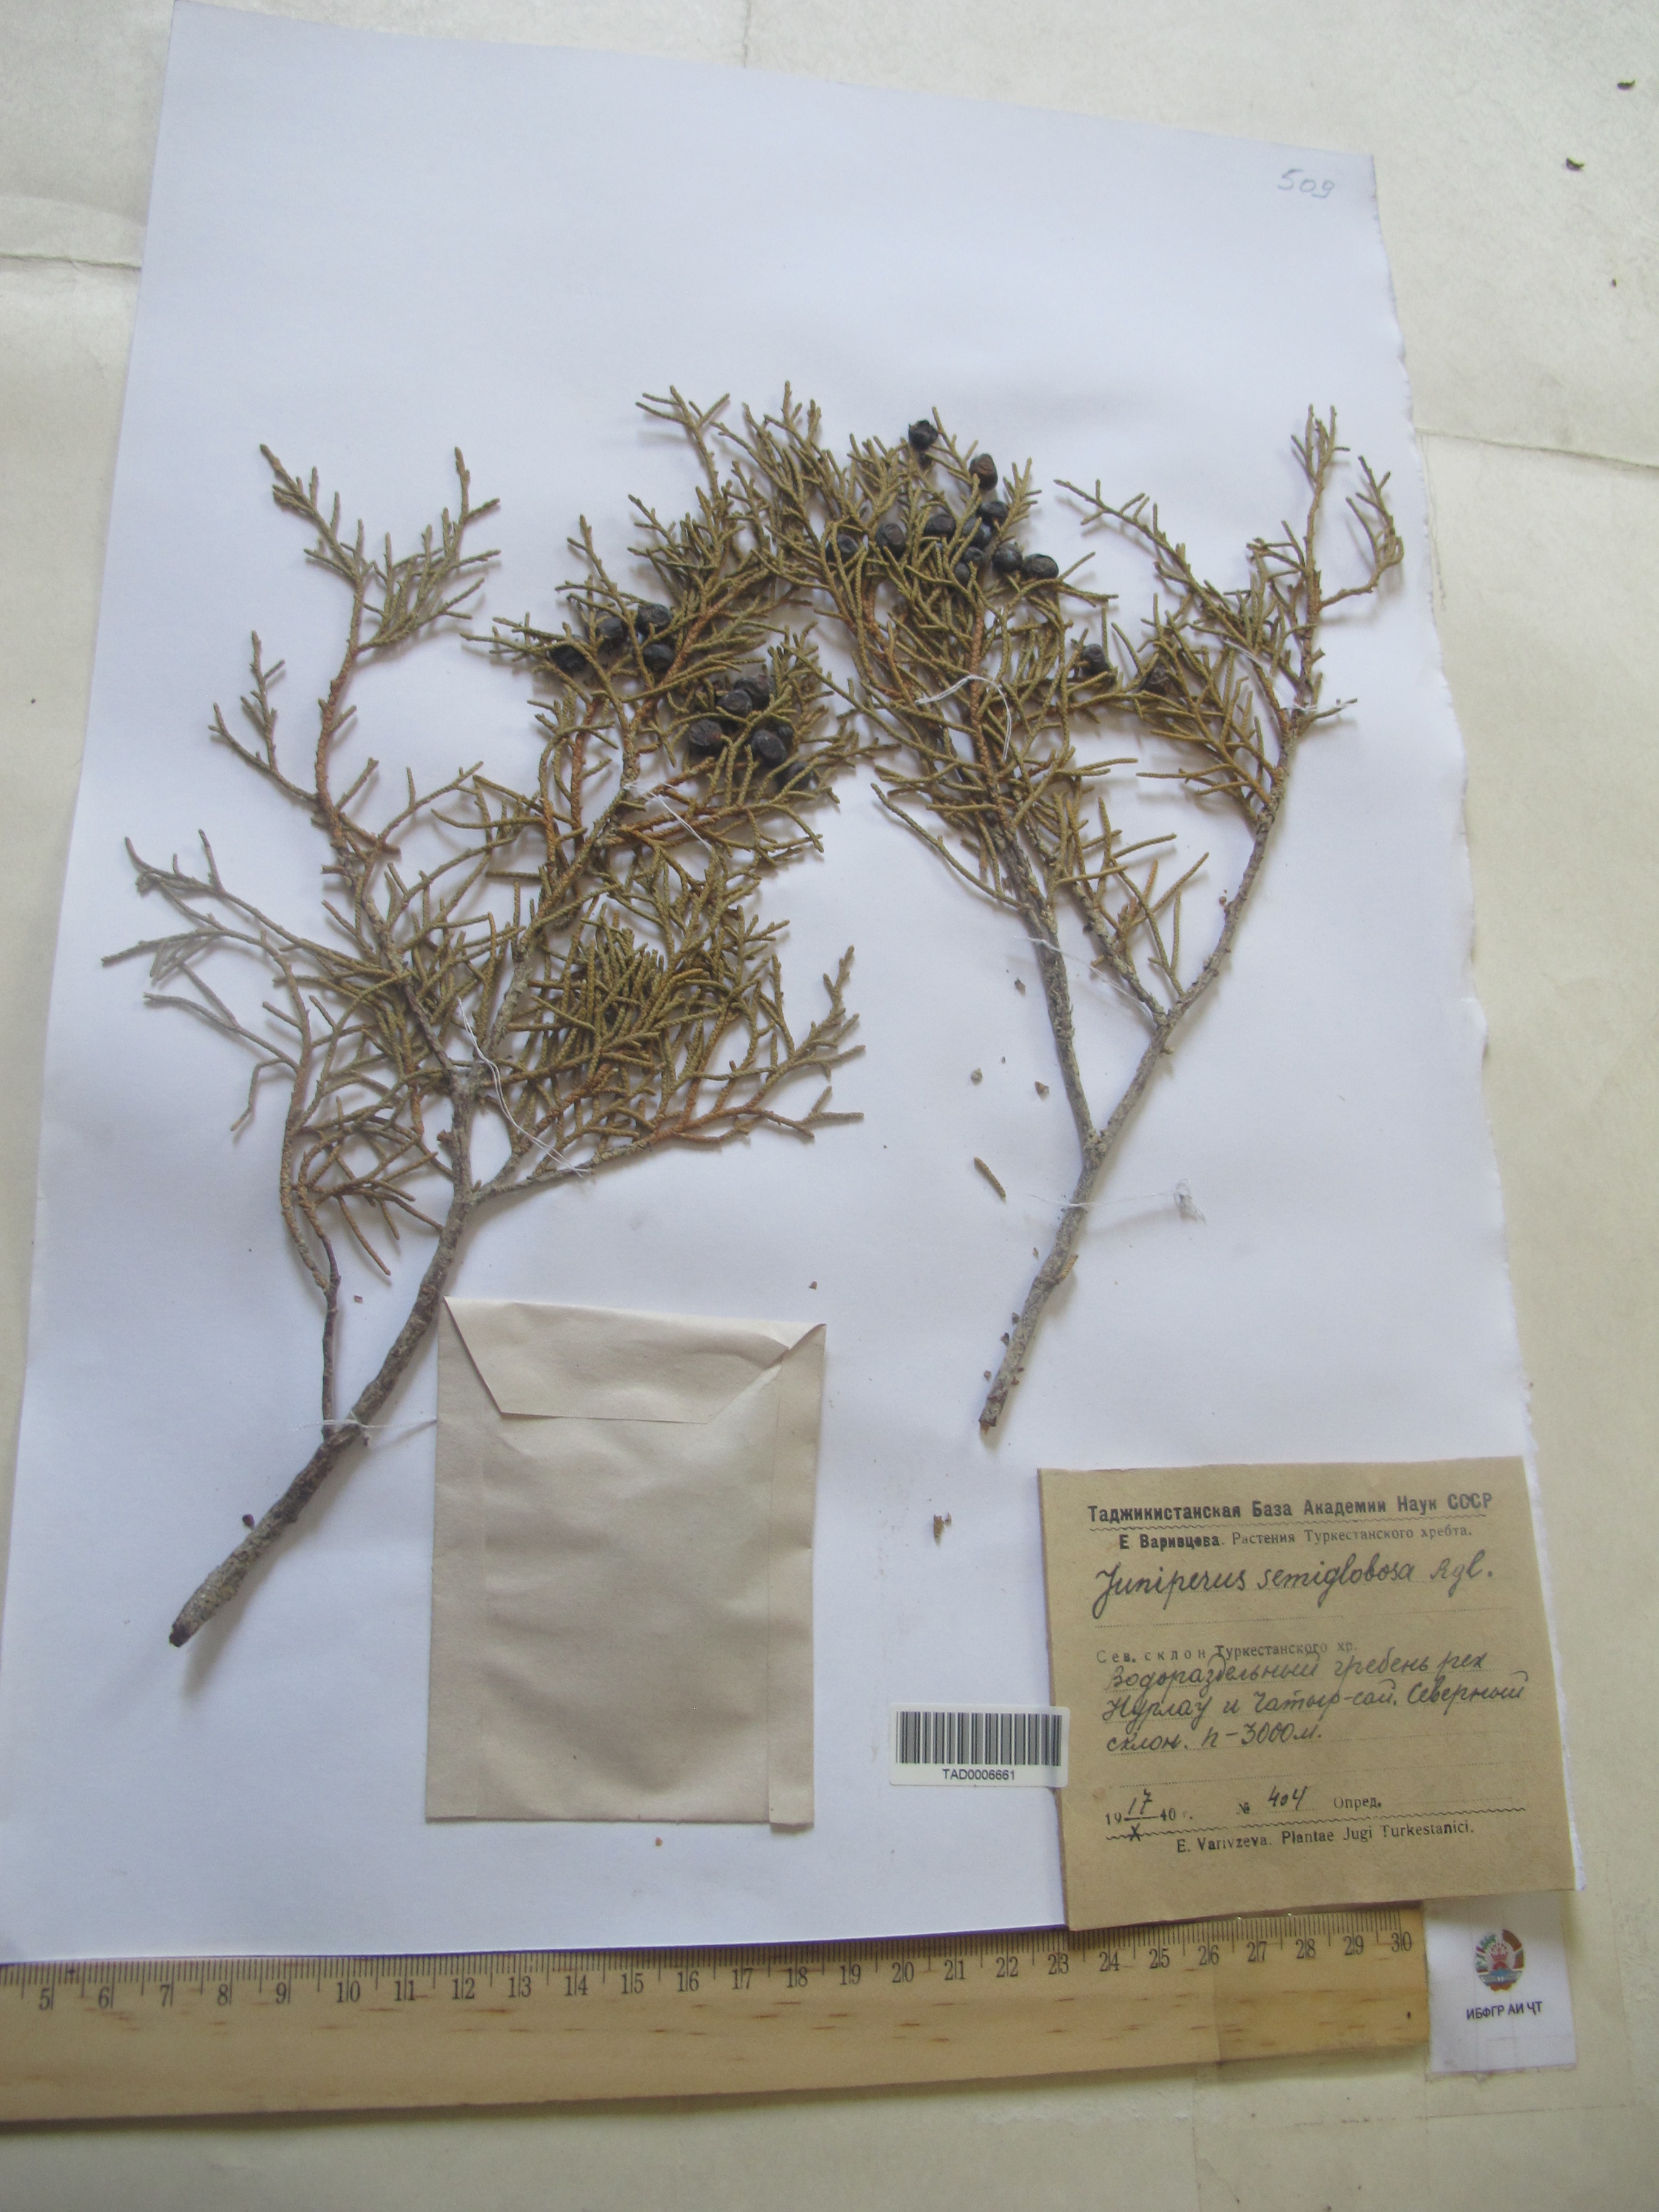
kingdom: Plantae
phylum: Tracheophyta
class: Pinopsida
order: Pinales
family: Cupressaceae
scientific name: Cupressaceae
